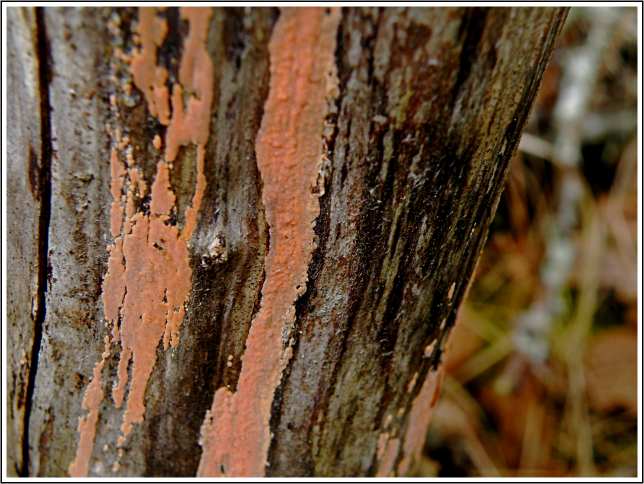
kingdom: Fungi
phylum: Basidiomycota
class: Agaricomycetes
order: Russulales
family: Peniophoraceae
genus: Peniophora
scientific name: Peniophora incarnata
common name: laksefarvet voksskind
